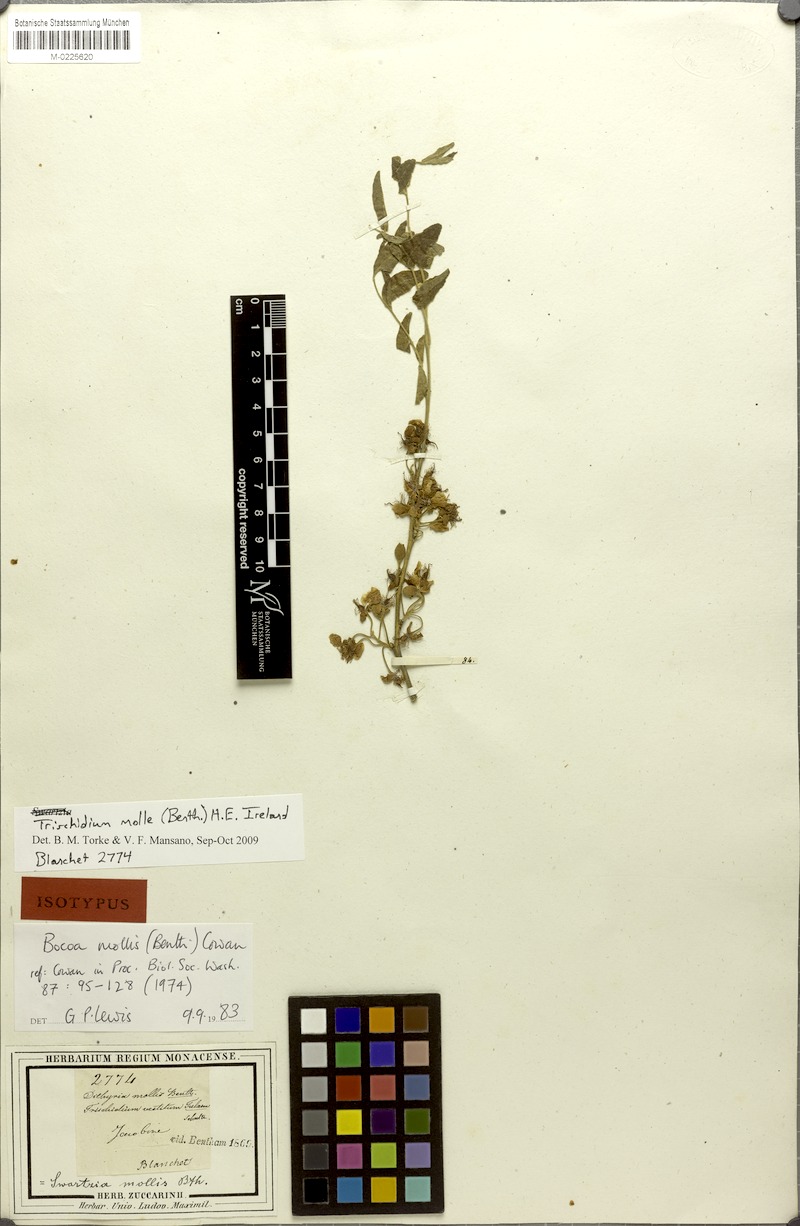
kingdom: Plantae
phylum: Tracheophyta
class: Magnoliopsida
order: Fabales
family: Fabaceae
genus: Trischidium
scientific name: Trischidium molle
